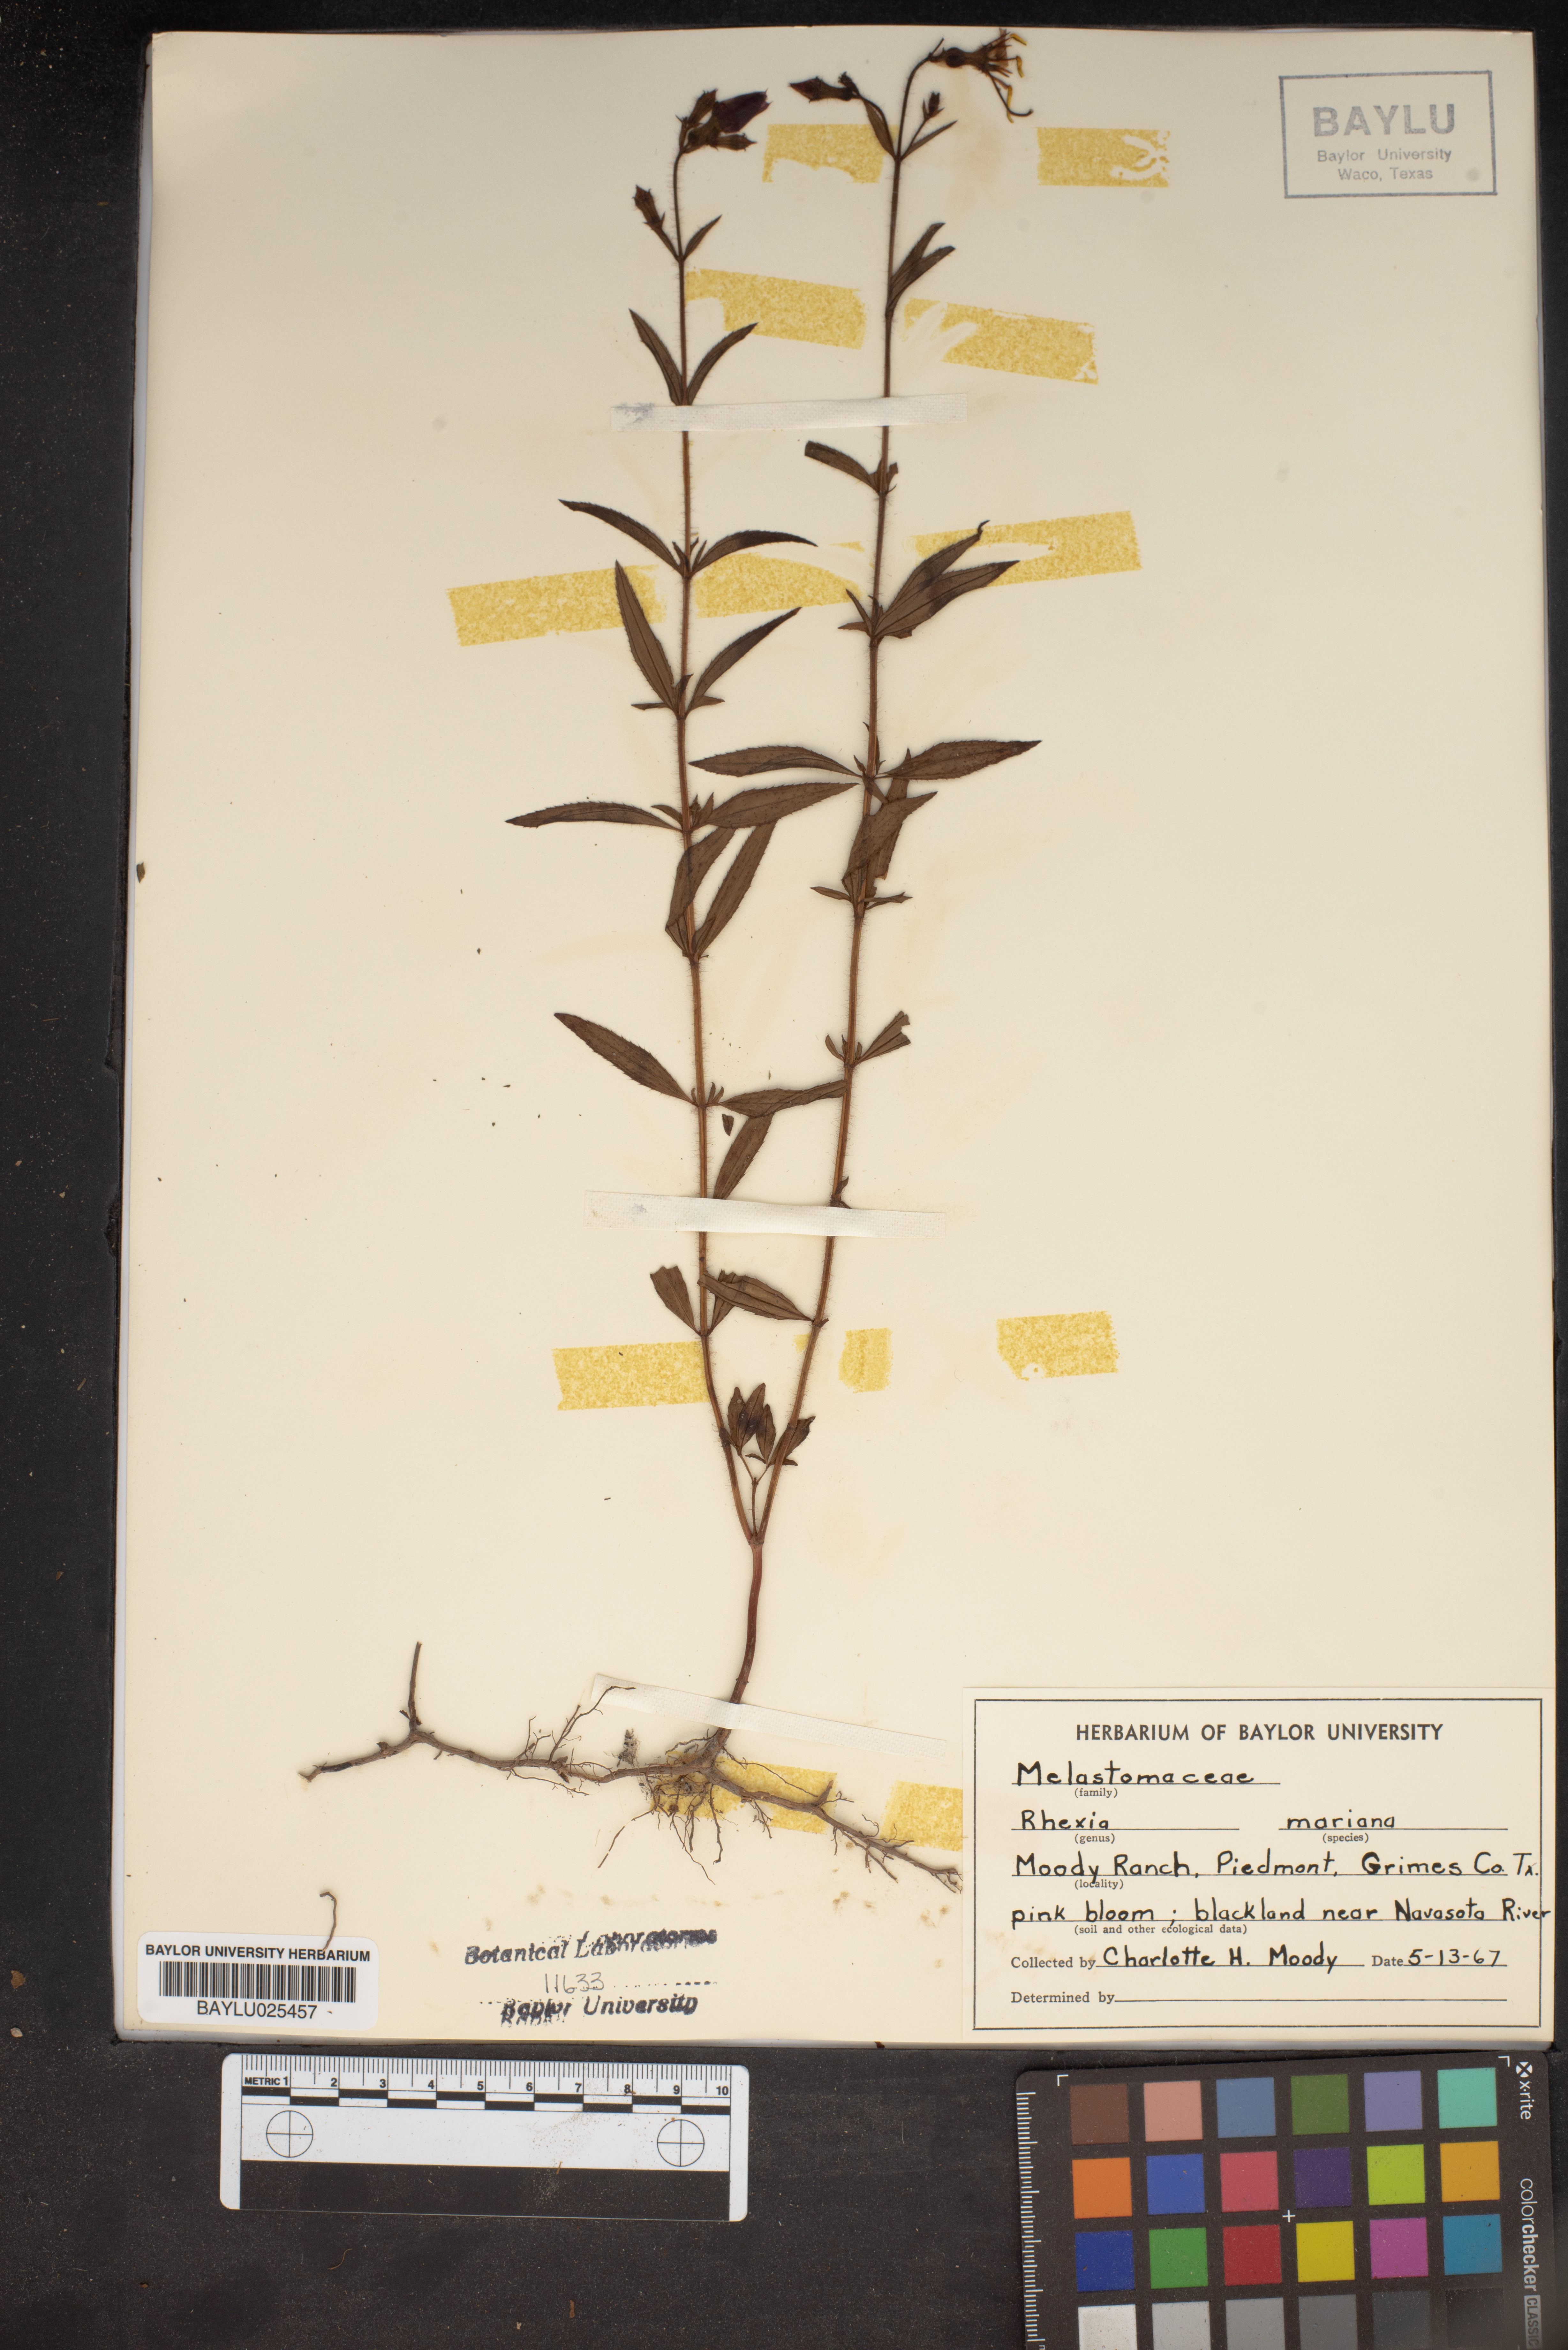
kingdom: Plantae
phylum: Tracheophyta
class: Magnoliopsida
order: Myrtales
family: Melastomataceae
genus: Rhexia
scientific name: Rhexia mariana
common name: Dull meadow-pitcher
